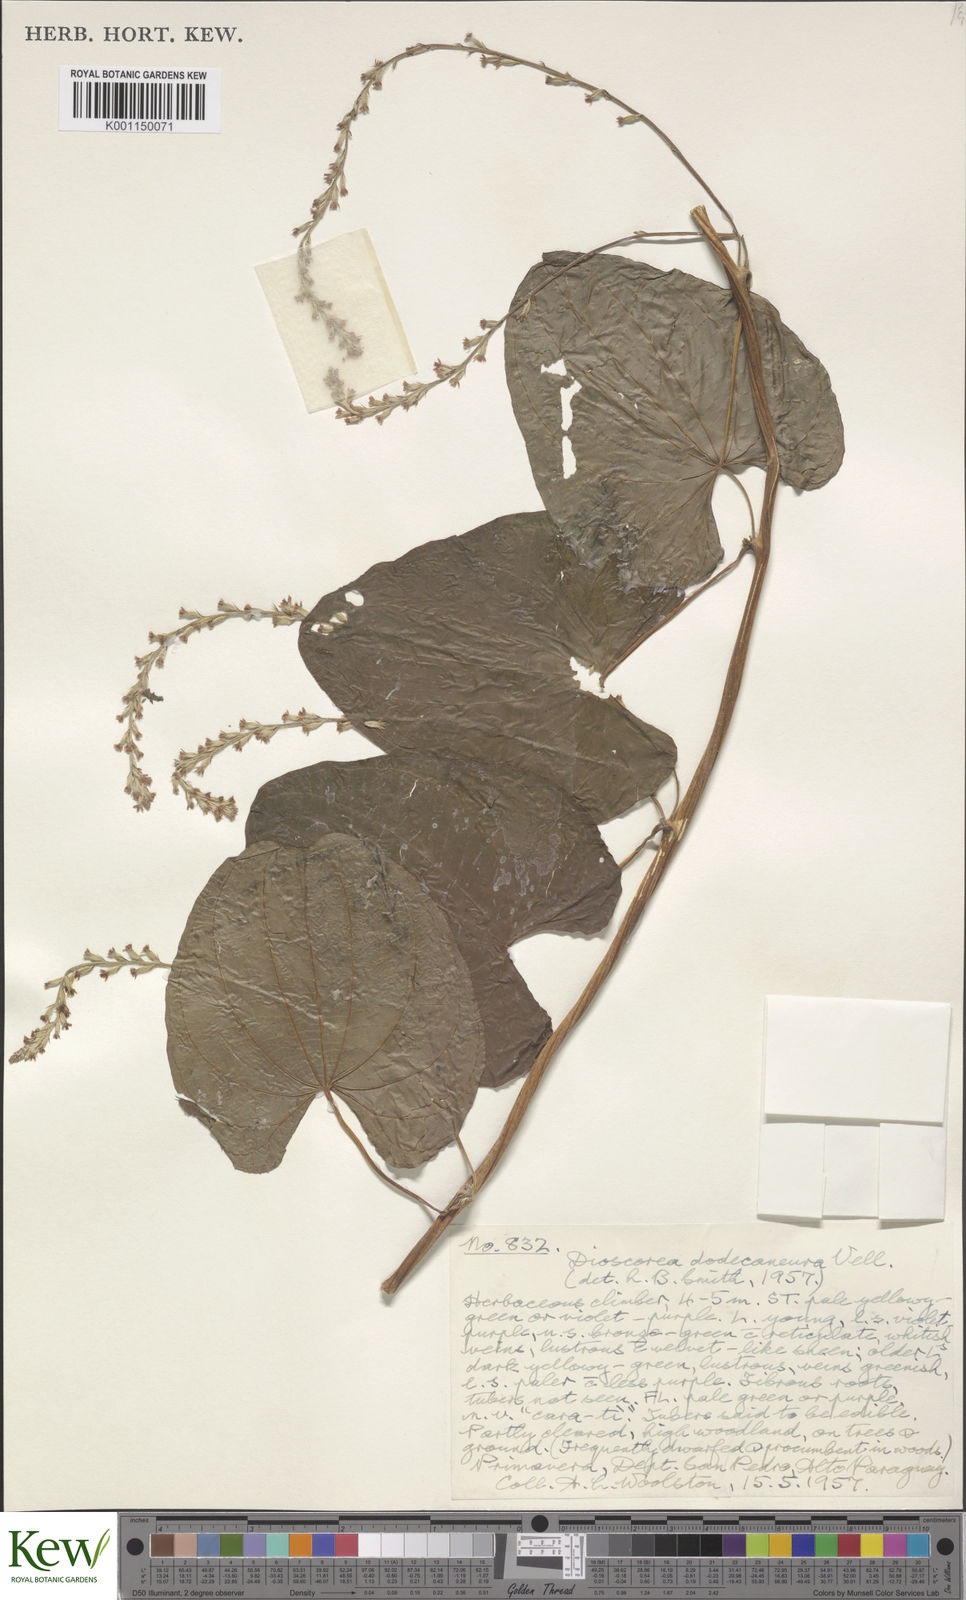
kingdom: Plantae
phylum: Tracheophyta
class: Liliopsida
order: Dioscoreales
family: Dioscoreaceae
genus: Dioscorea
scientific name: Dioscorea dodecaneura
